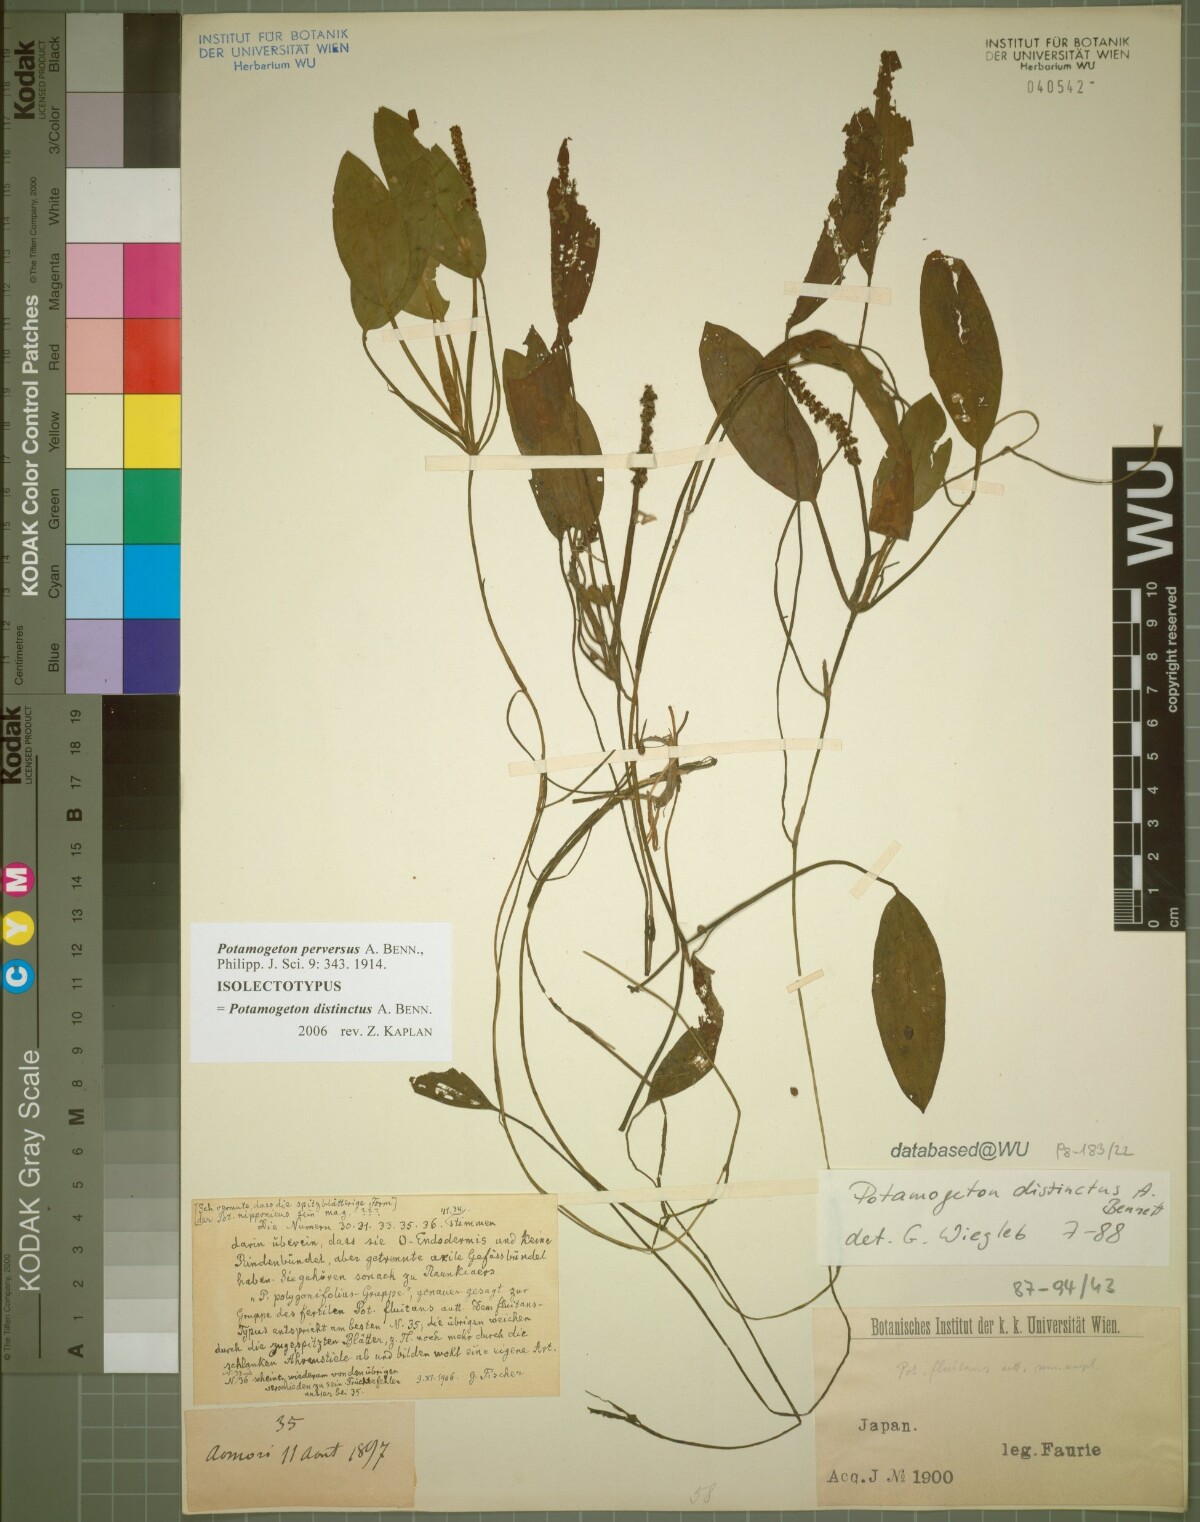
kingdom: Plantae
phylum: Tracheophyta
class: Liliopsida
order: Alismatales
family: Potamogetonaceae
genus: Potamogeton
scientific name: Potamogeton distinctus
